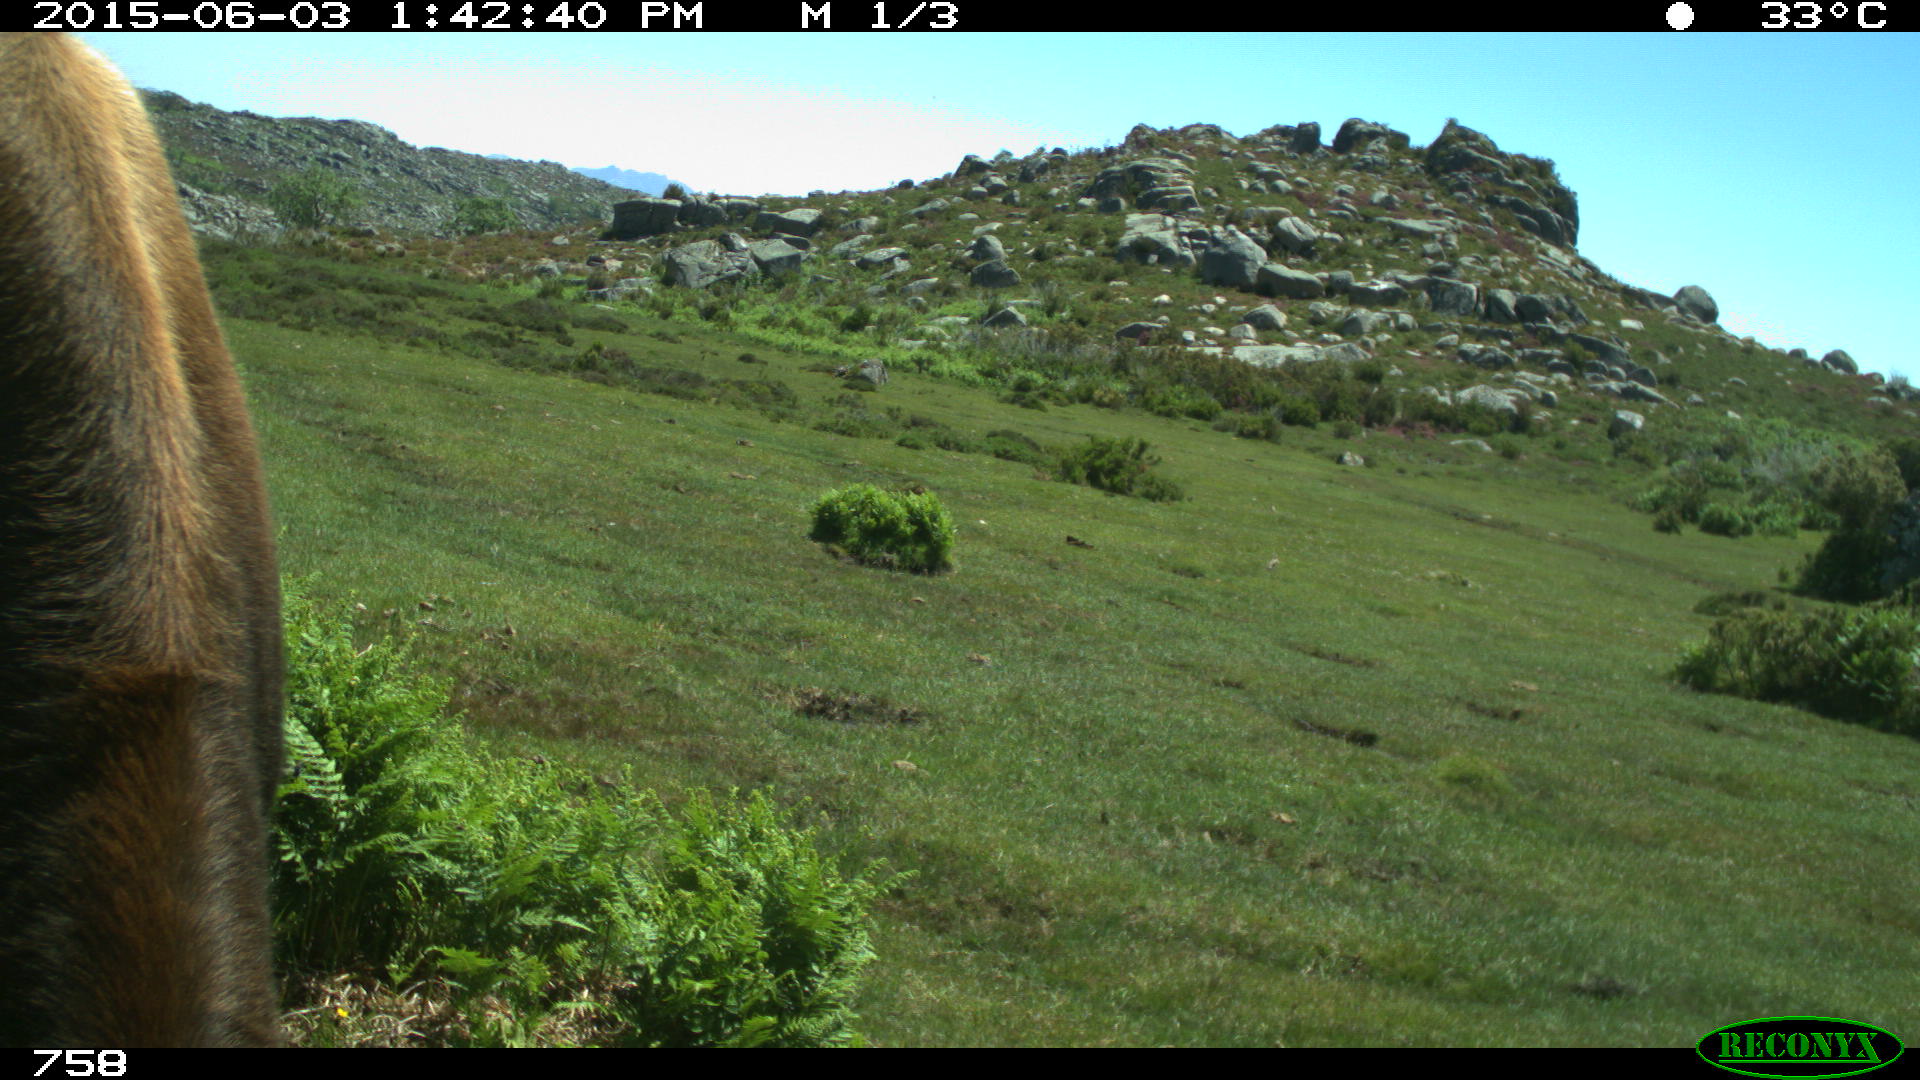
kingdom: Animalia
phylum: Chordata
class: Mammalia
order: Artiodactyla
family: Bovidae
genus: Bos
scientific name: Bos taurus
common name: Domesticated cattle
